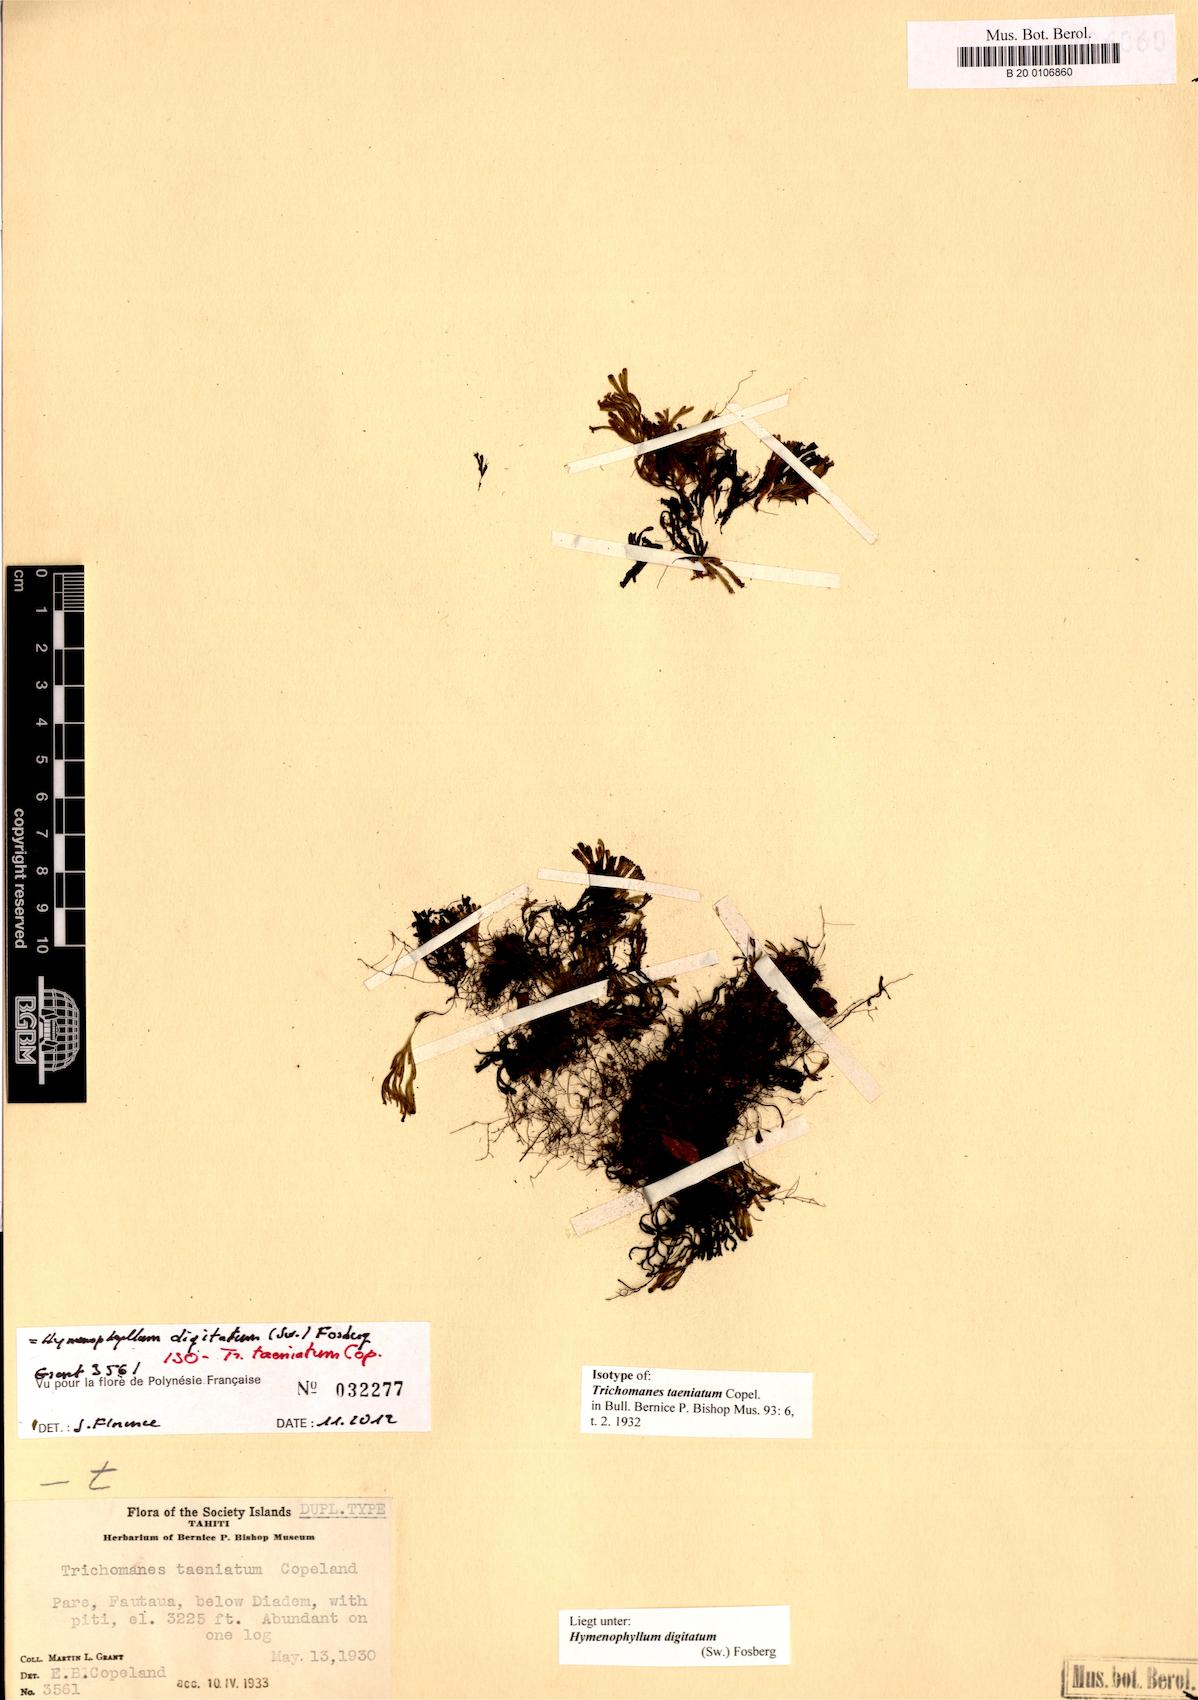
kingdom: Plantae
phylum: Tracheophyta
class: Polypodiopsida
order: Hymenophyllales
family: Hymenophyllaceae
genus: Hymenophyllum
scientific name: Hymenophyllum digitatum
